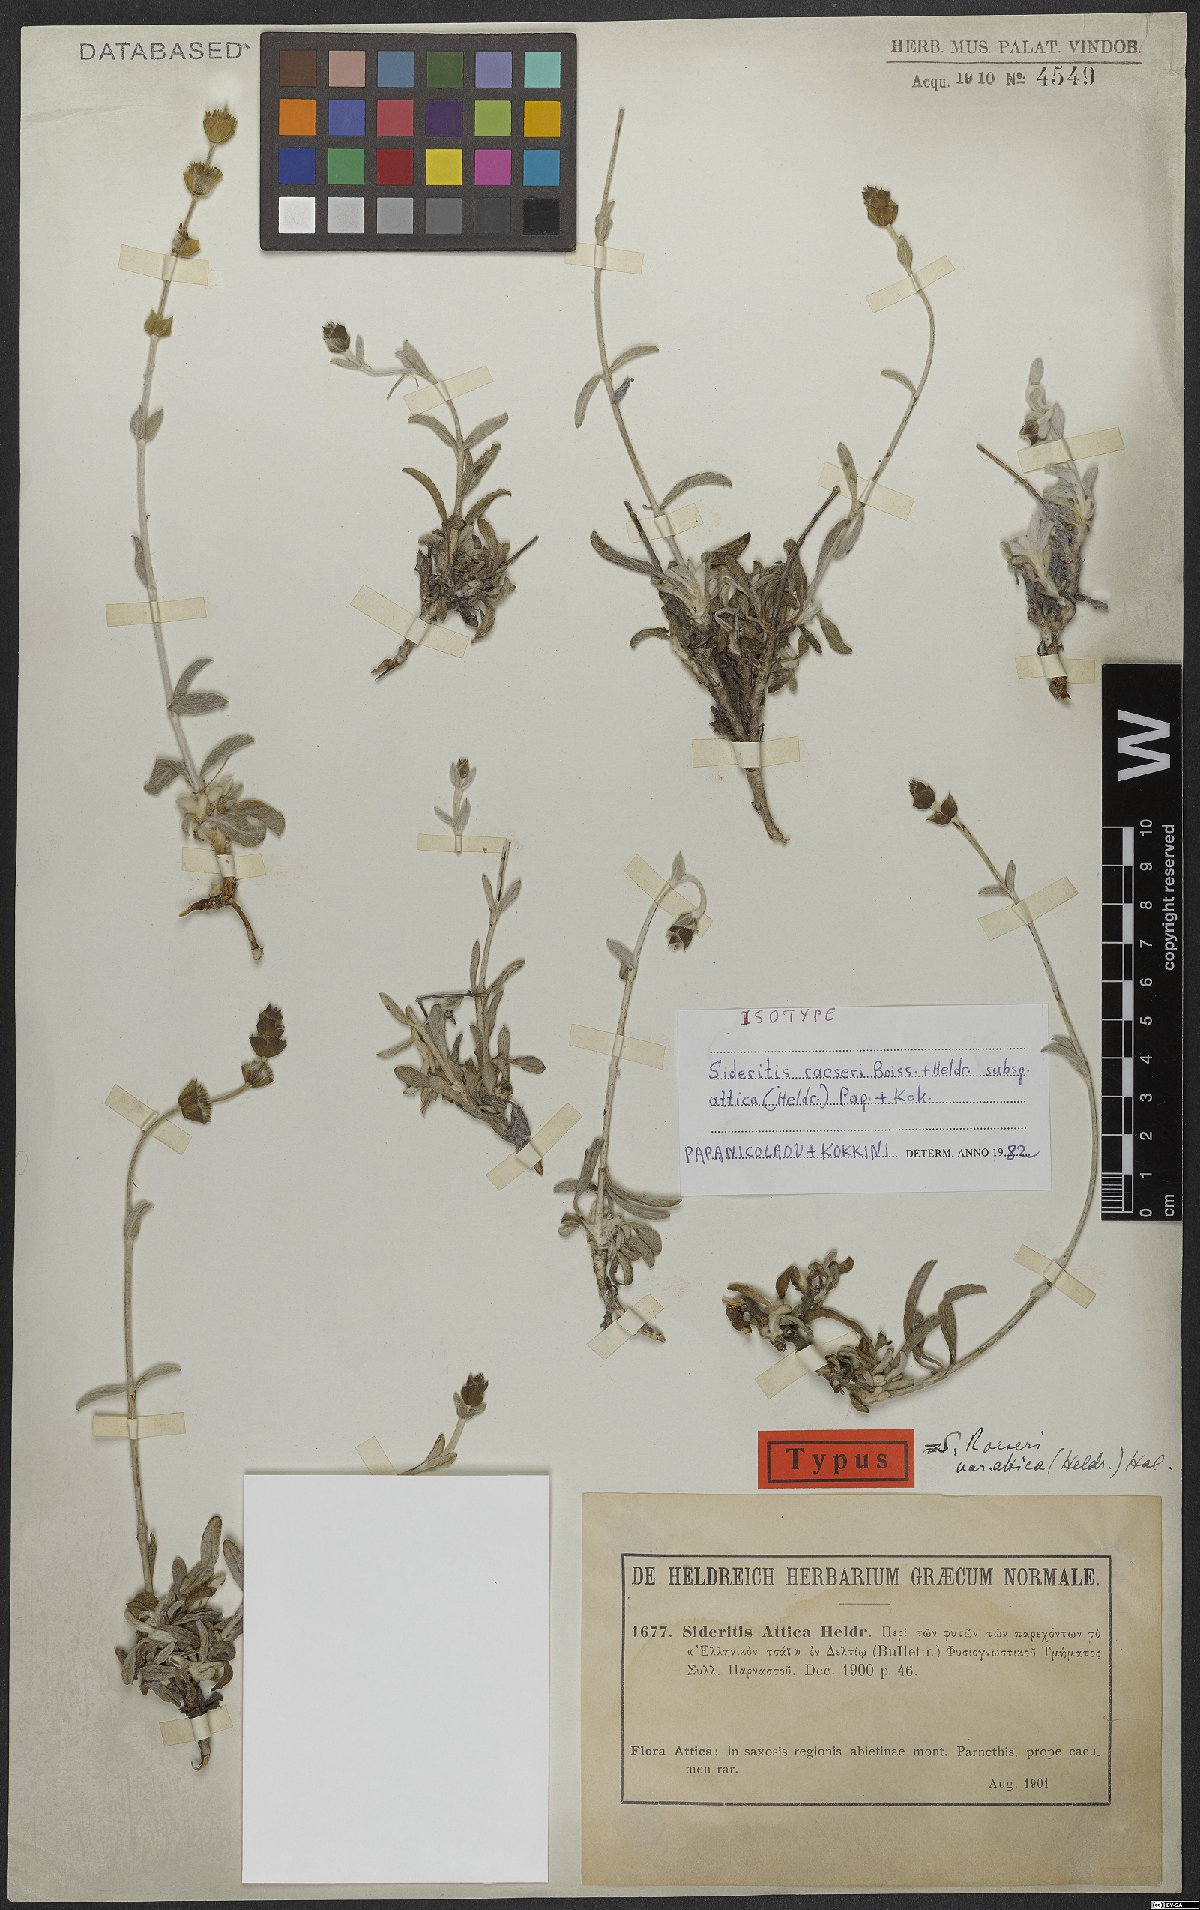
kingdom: Plantae
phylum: Tracheophyta
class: Magnoliopsida
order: Lamiales
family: Lamiaceae
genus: Sideritis
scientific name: Sideritis raeseri
